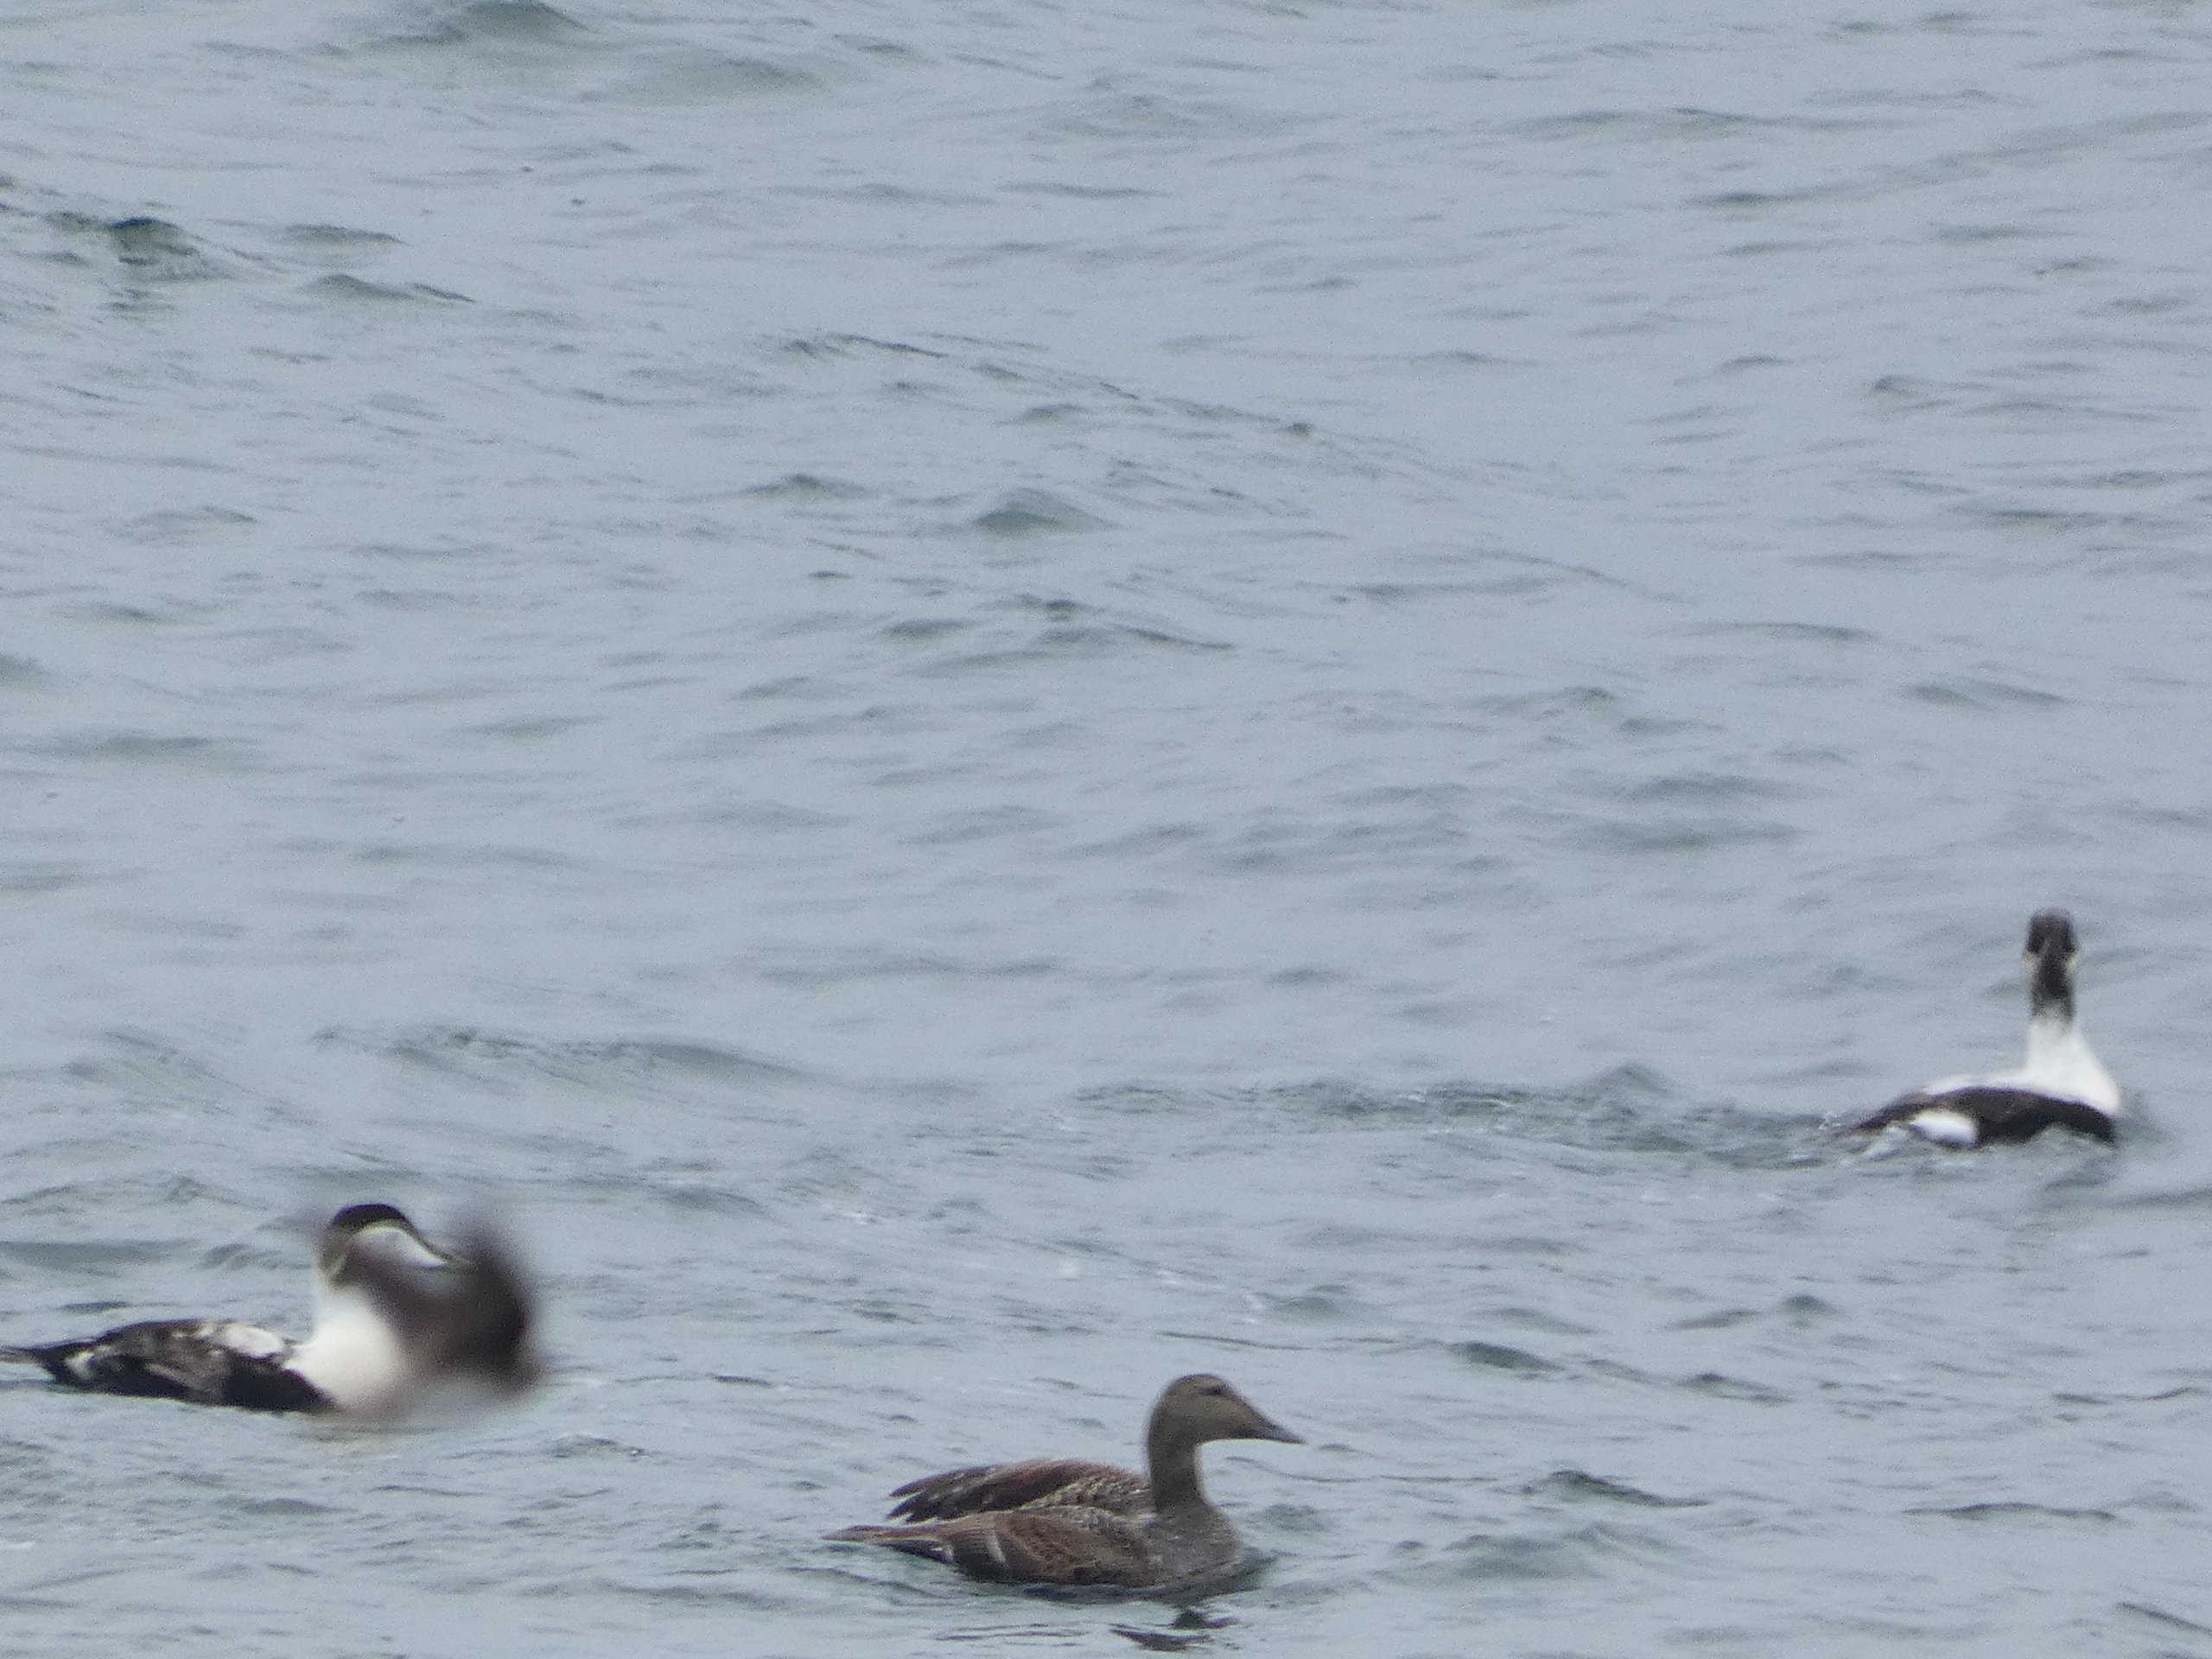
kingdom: Animalia
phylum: Chordata
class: Aves
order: Anseriformes
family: Anatidae
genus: Somateria
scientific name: Somateria mollissima
